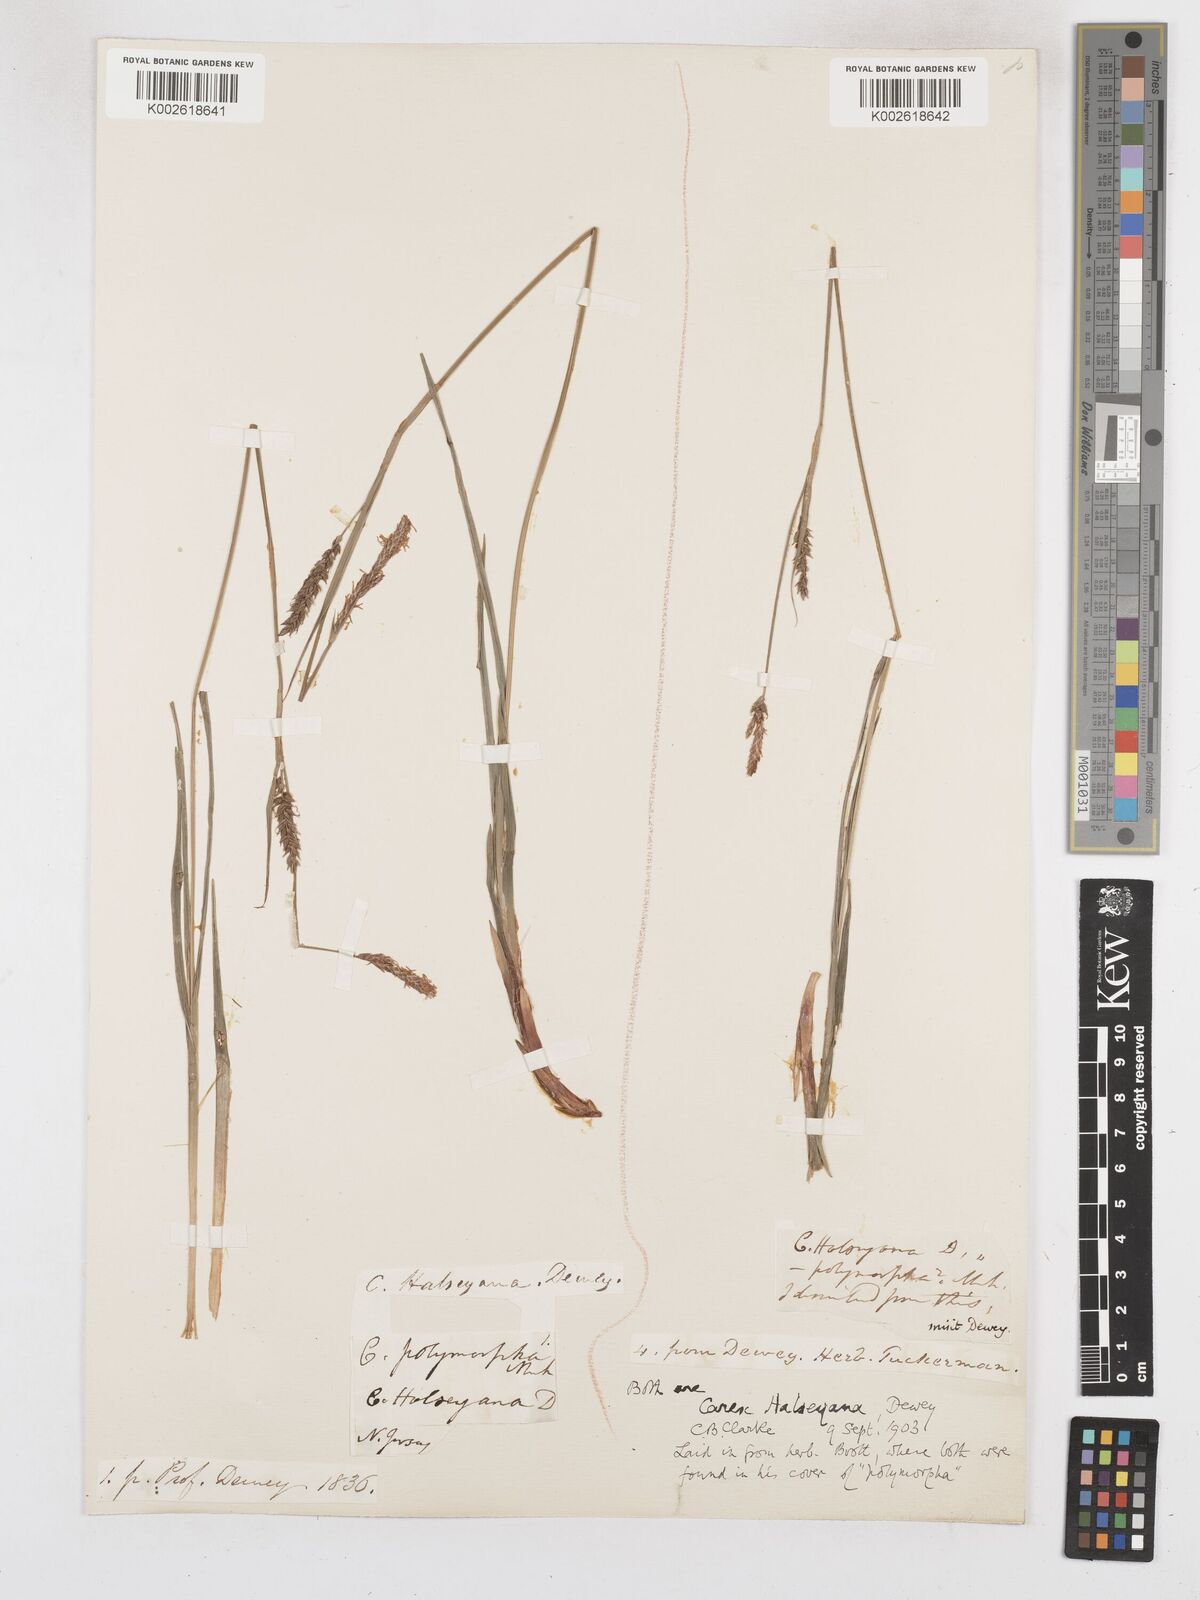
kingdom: Plantae
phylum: Tracheophyta
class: Liliopsida
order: Poales
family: Cyperaceae
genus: Carex
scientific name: Carex polymorpha
